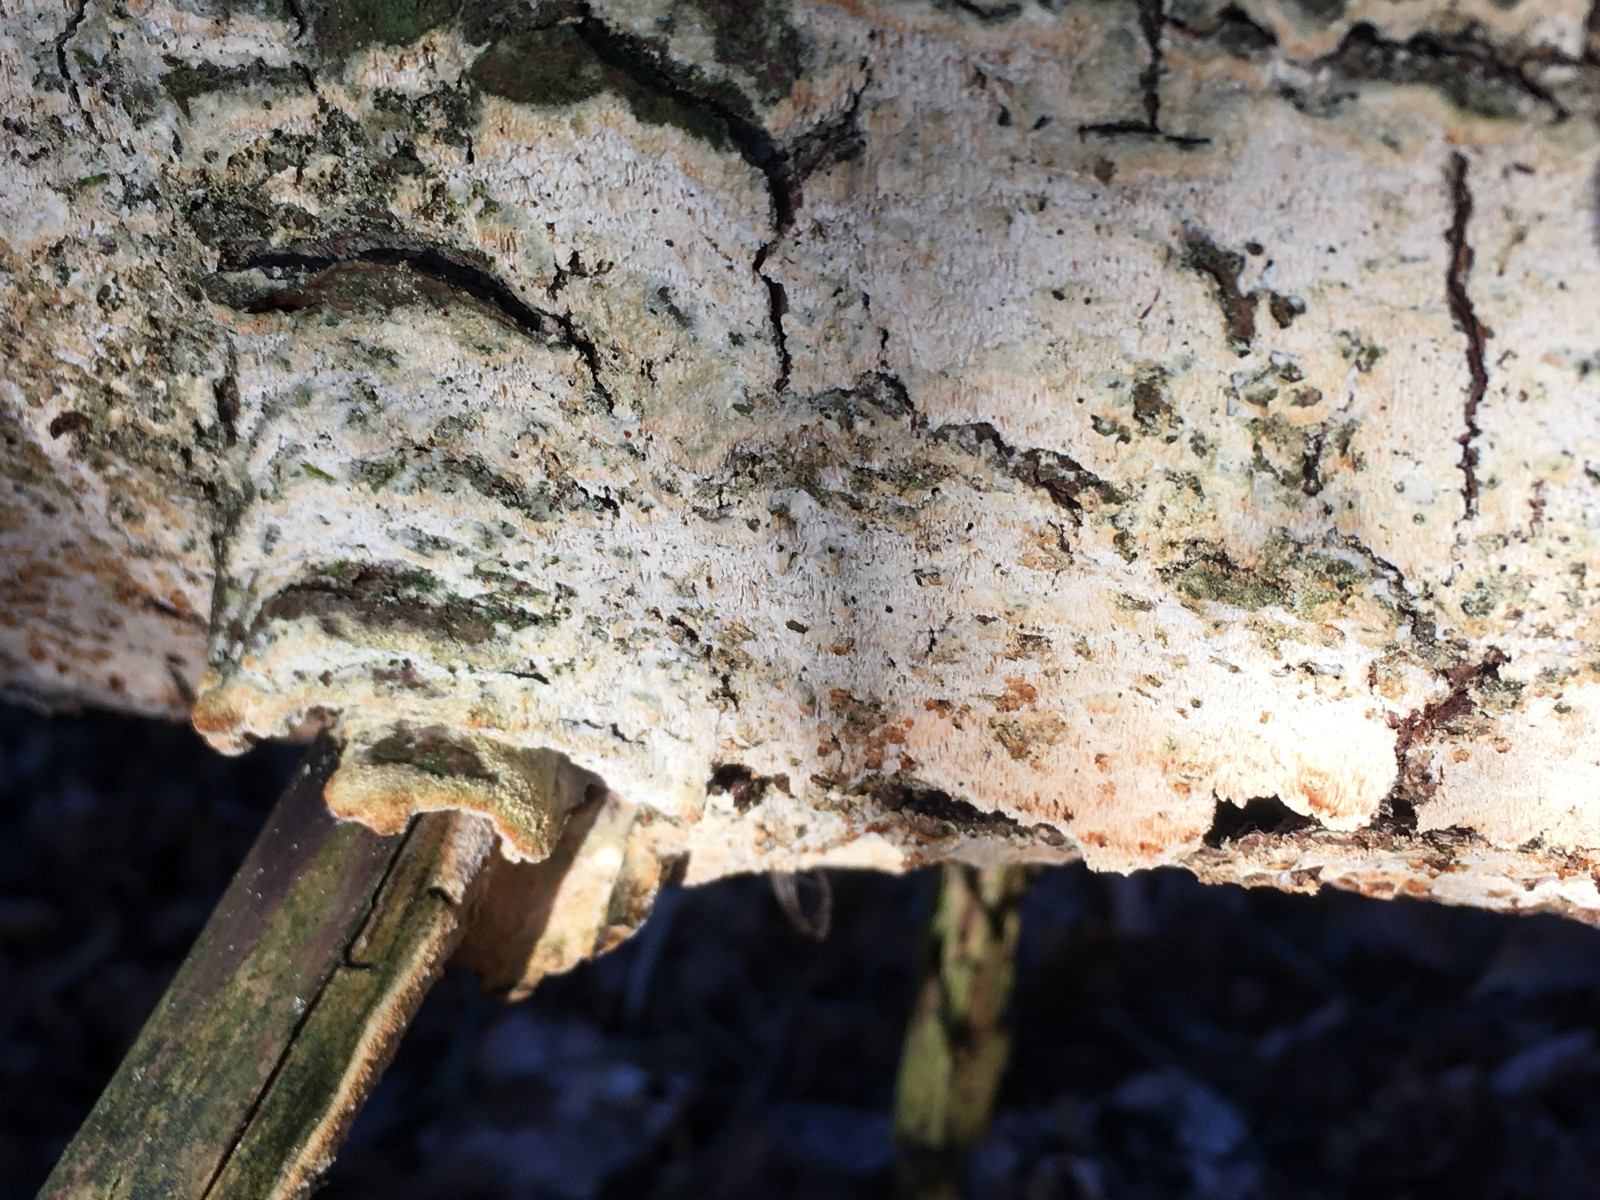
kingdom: Fungi
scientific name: Fungi
